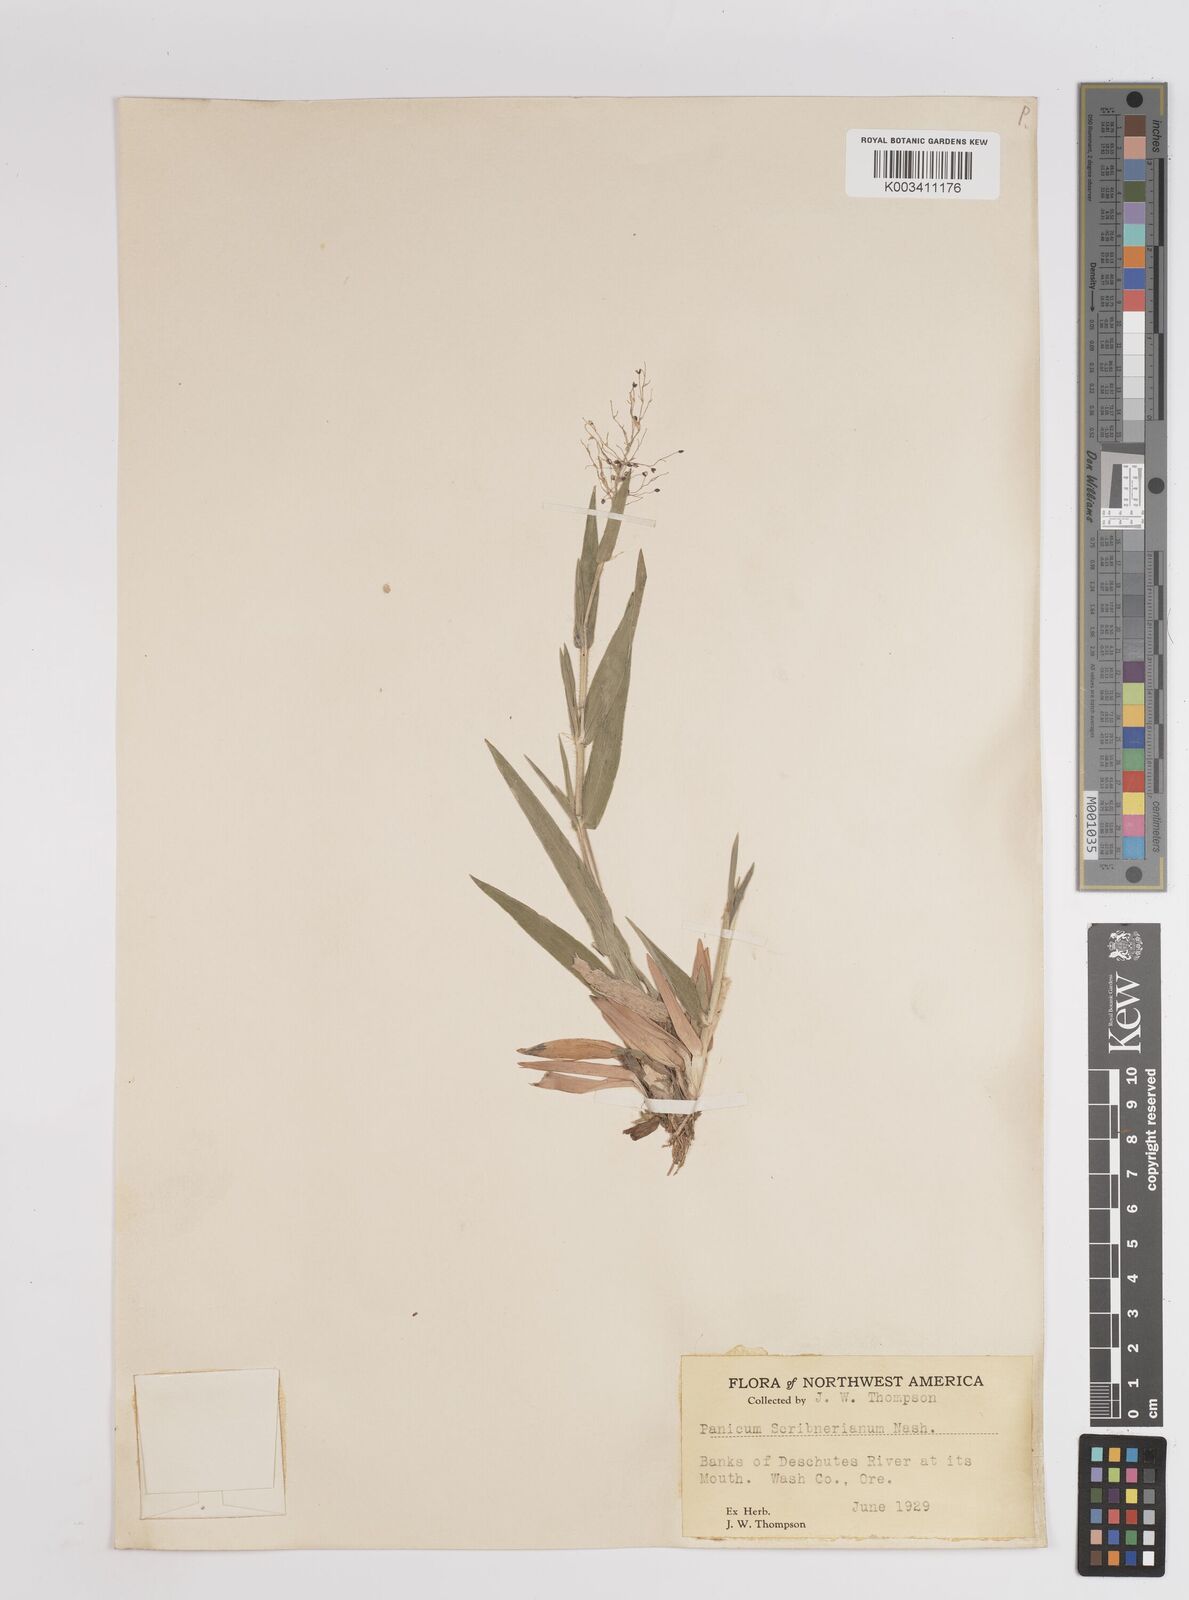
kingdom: Plantae
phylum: Tracheophyta
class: Liliopsida
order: Poales
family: Poaceae
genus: Dichanthelium
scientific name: Dichanthelium scribnerianum
